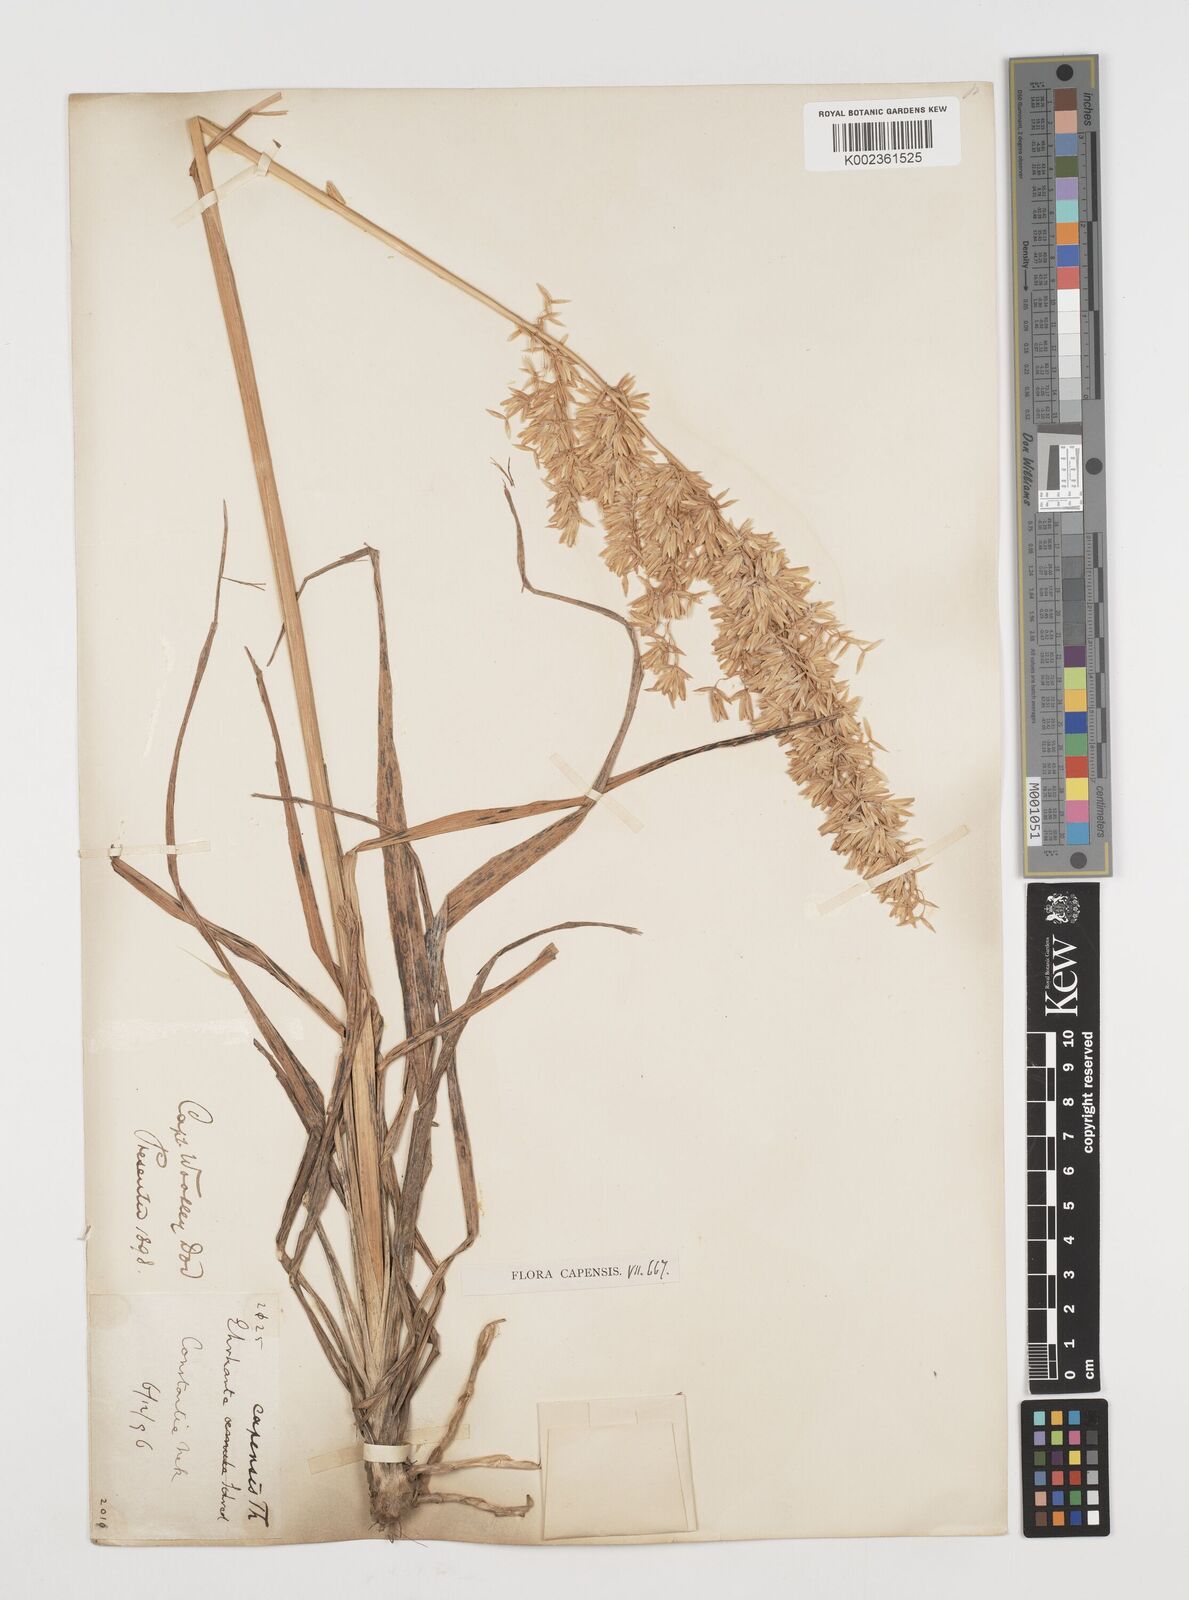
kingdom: Plantae
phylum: Tracheophyta
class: Liliopsida
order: Poales
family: Poaceae
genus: Ehrharta
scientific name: Ehrharta capensis
